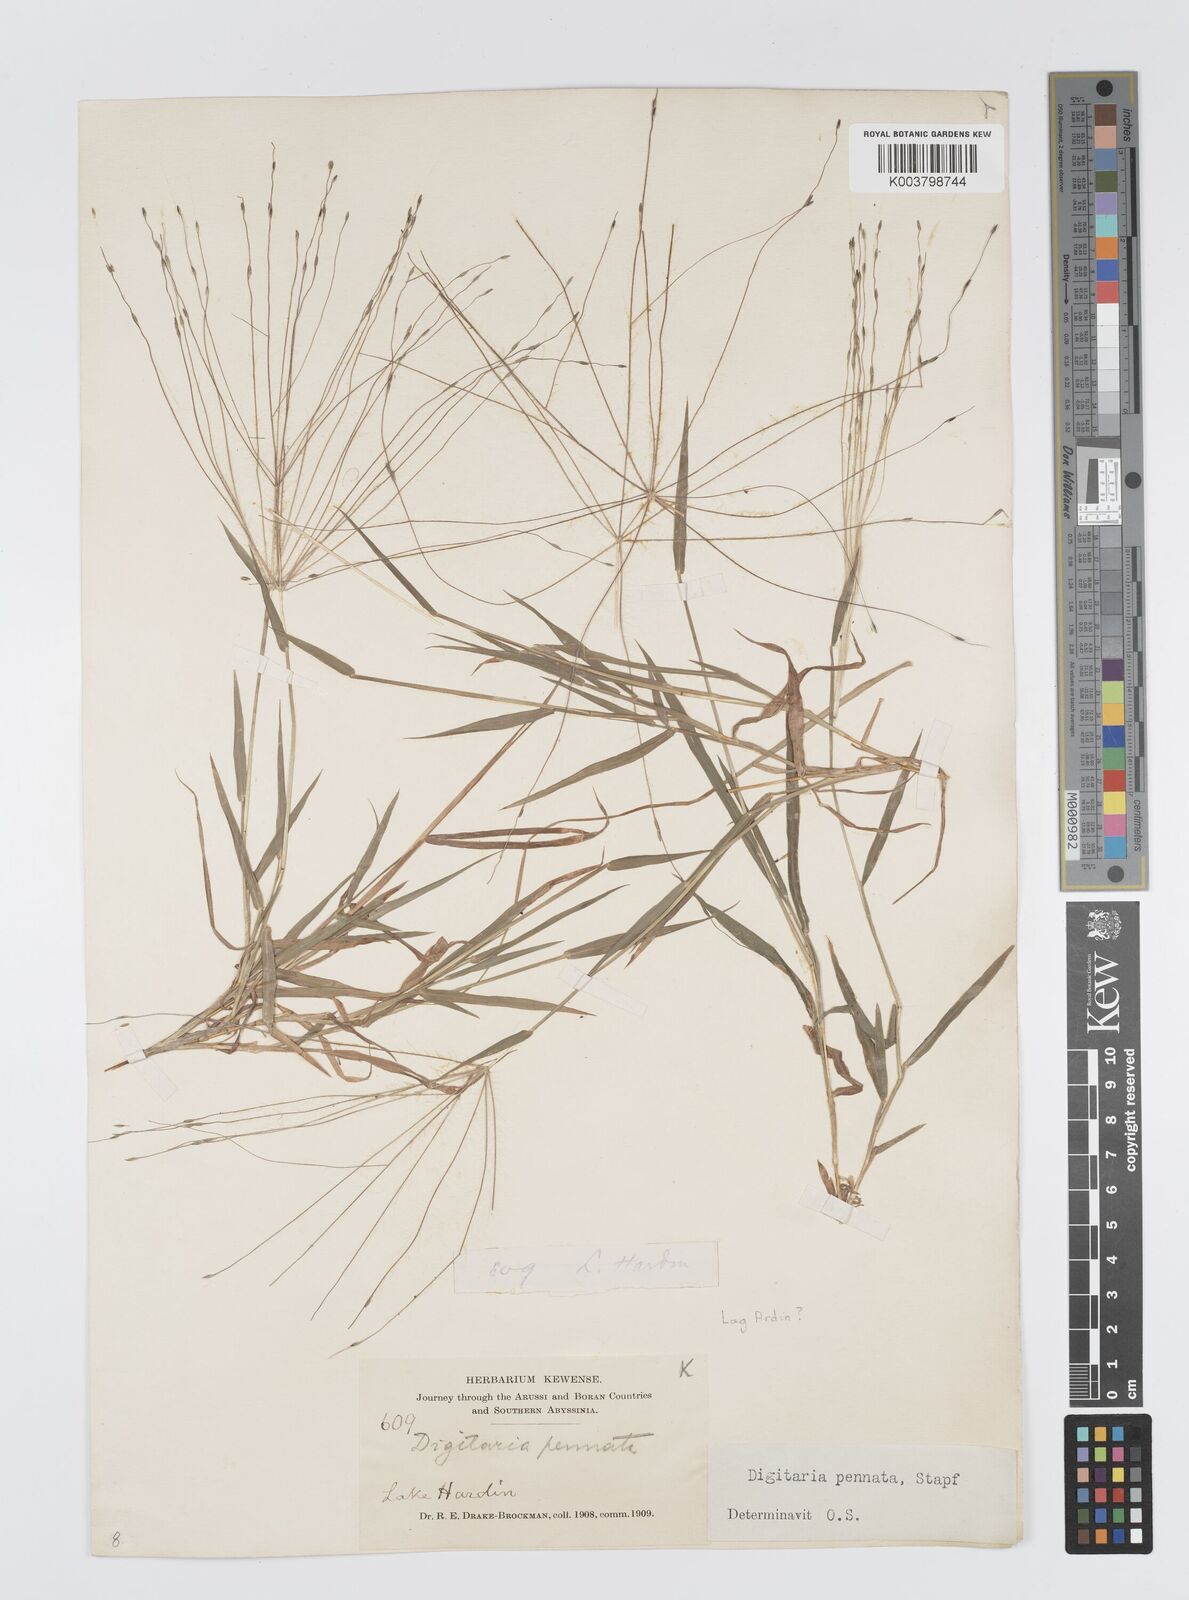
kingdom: Plantae
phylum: Tracheophyta
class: Liliopsida
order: Poales
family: Poaceae
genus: Digitaria
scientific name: Digitaria pennata
